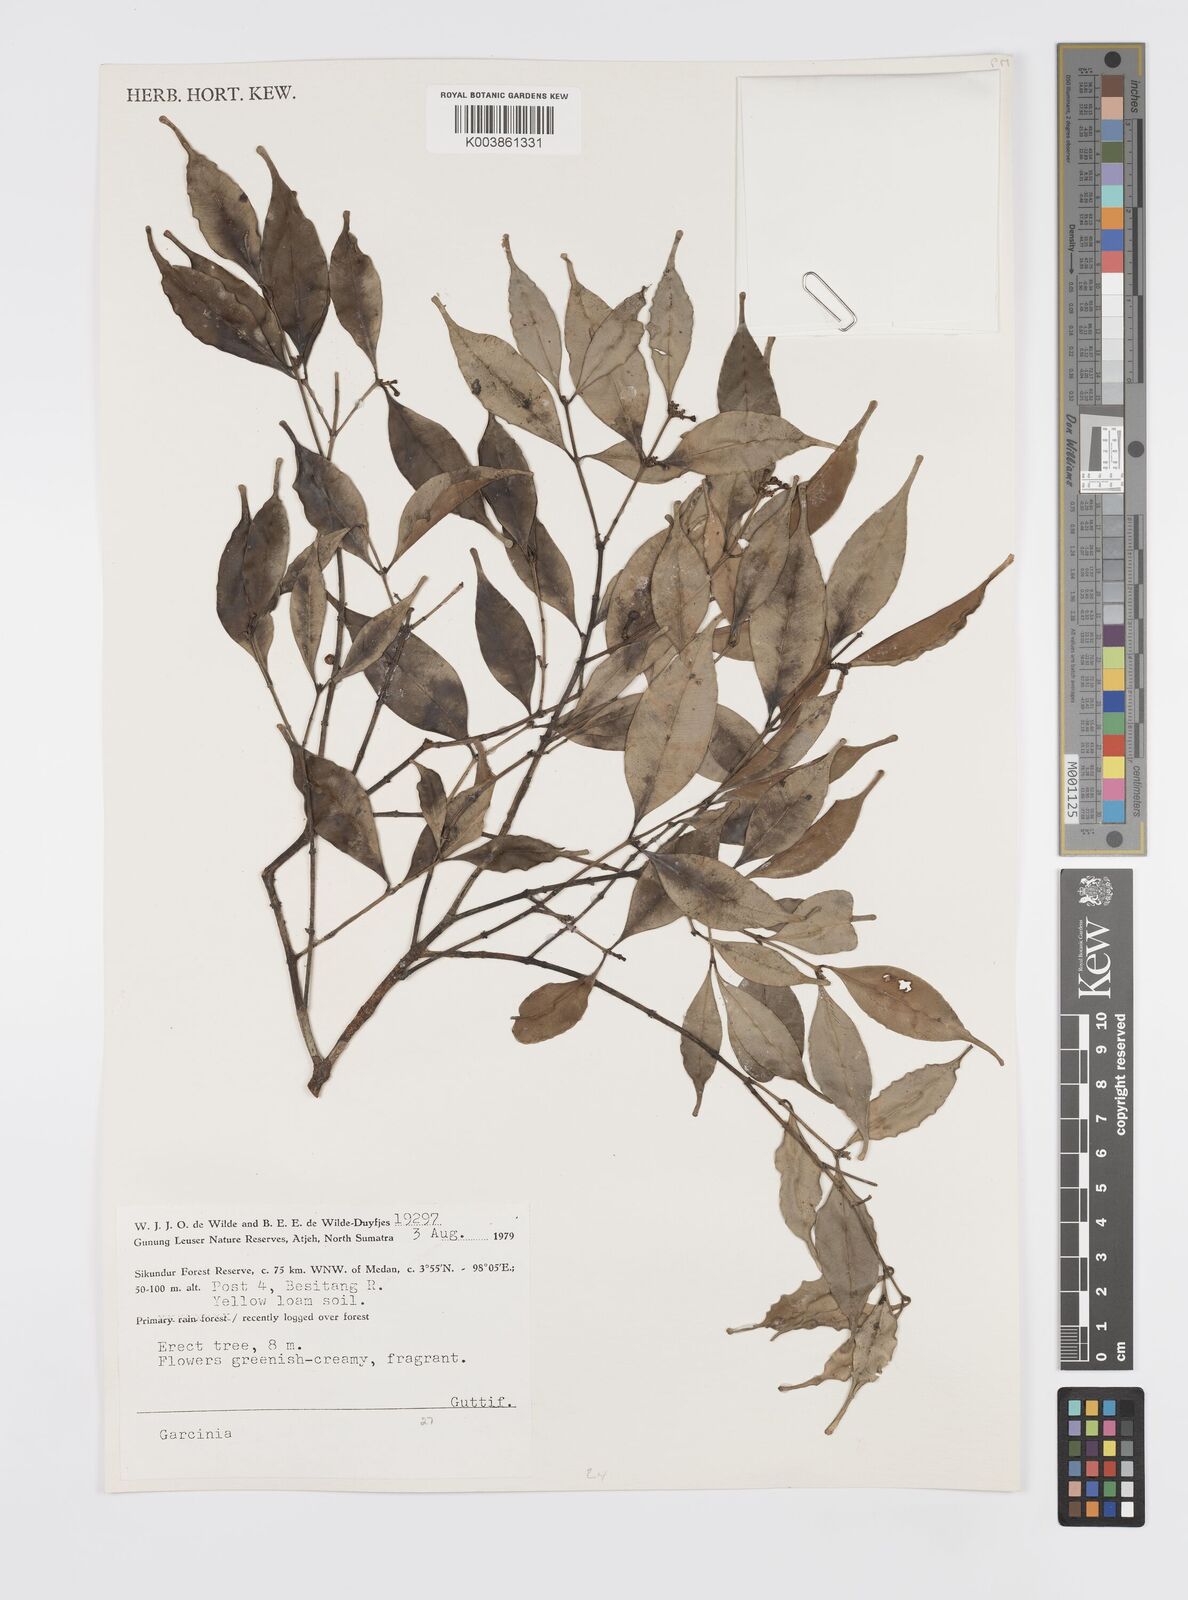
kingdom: Plantae
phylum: Tracheophyta
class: Magnoliopsida
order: Malpighiales
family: Clusiaceae
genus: Garcinia
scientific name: Garcinia
